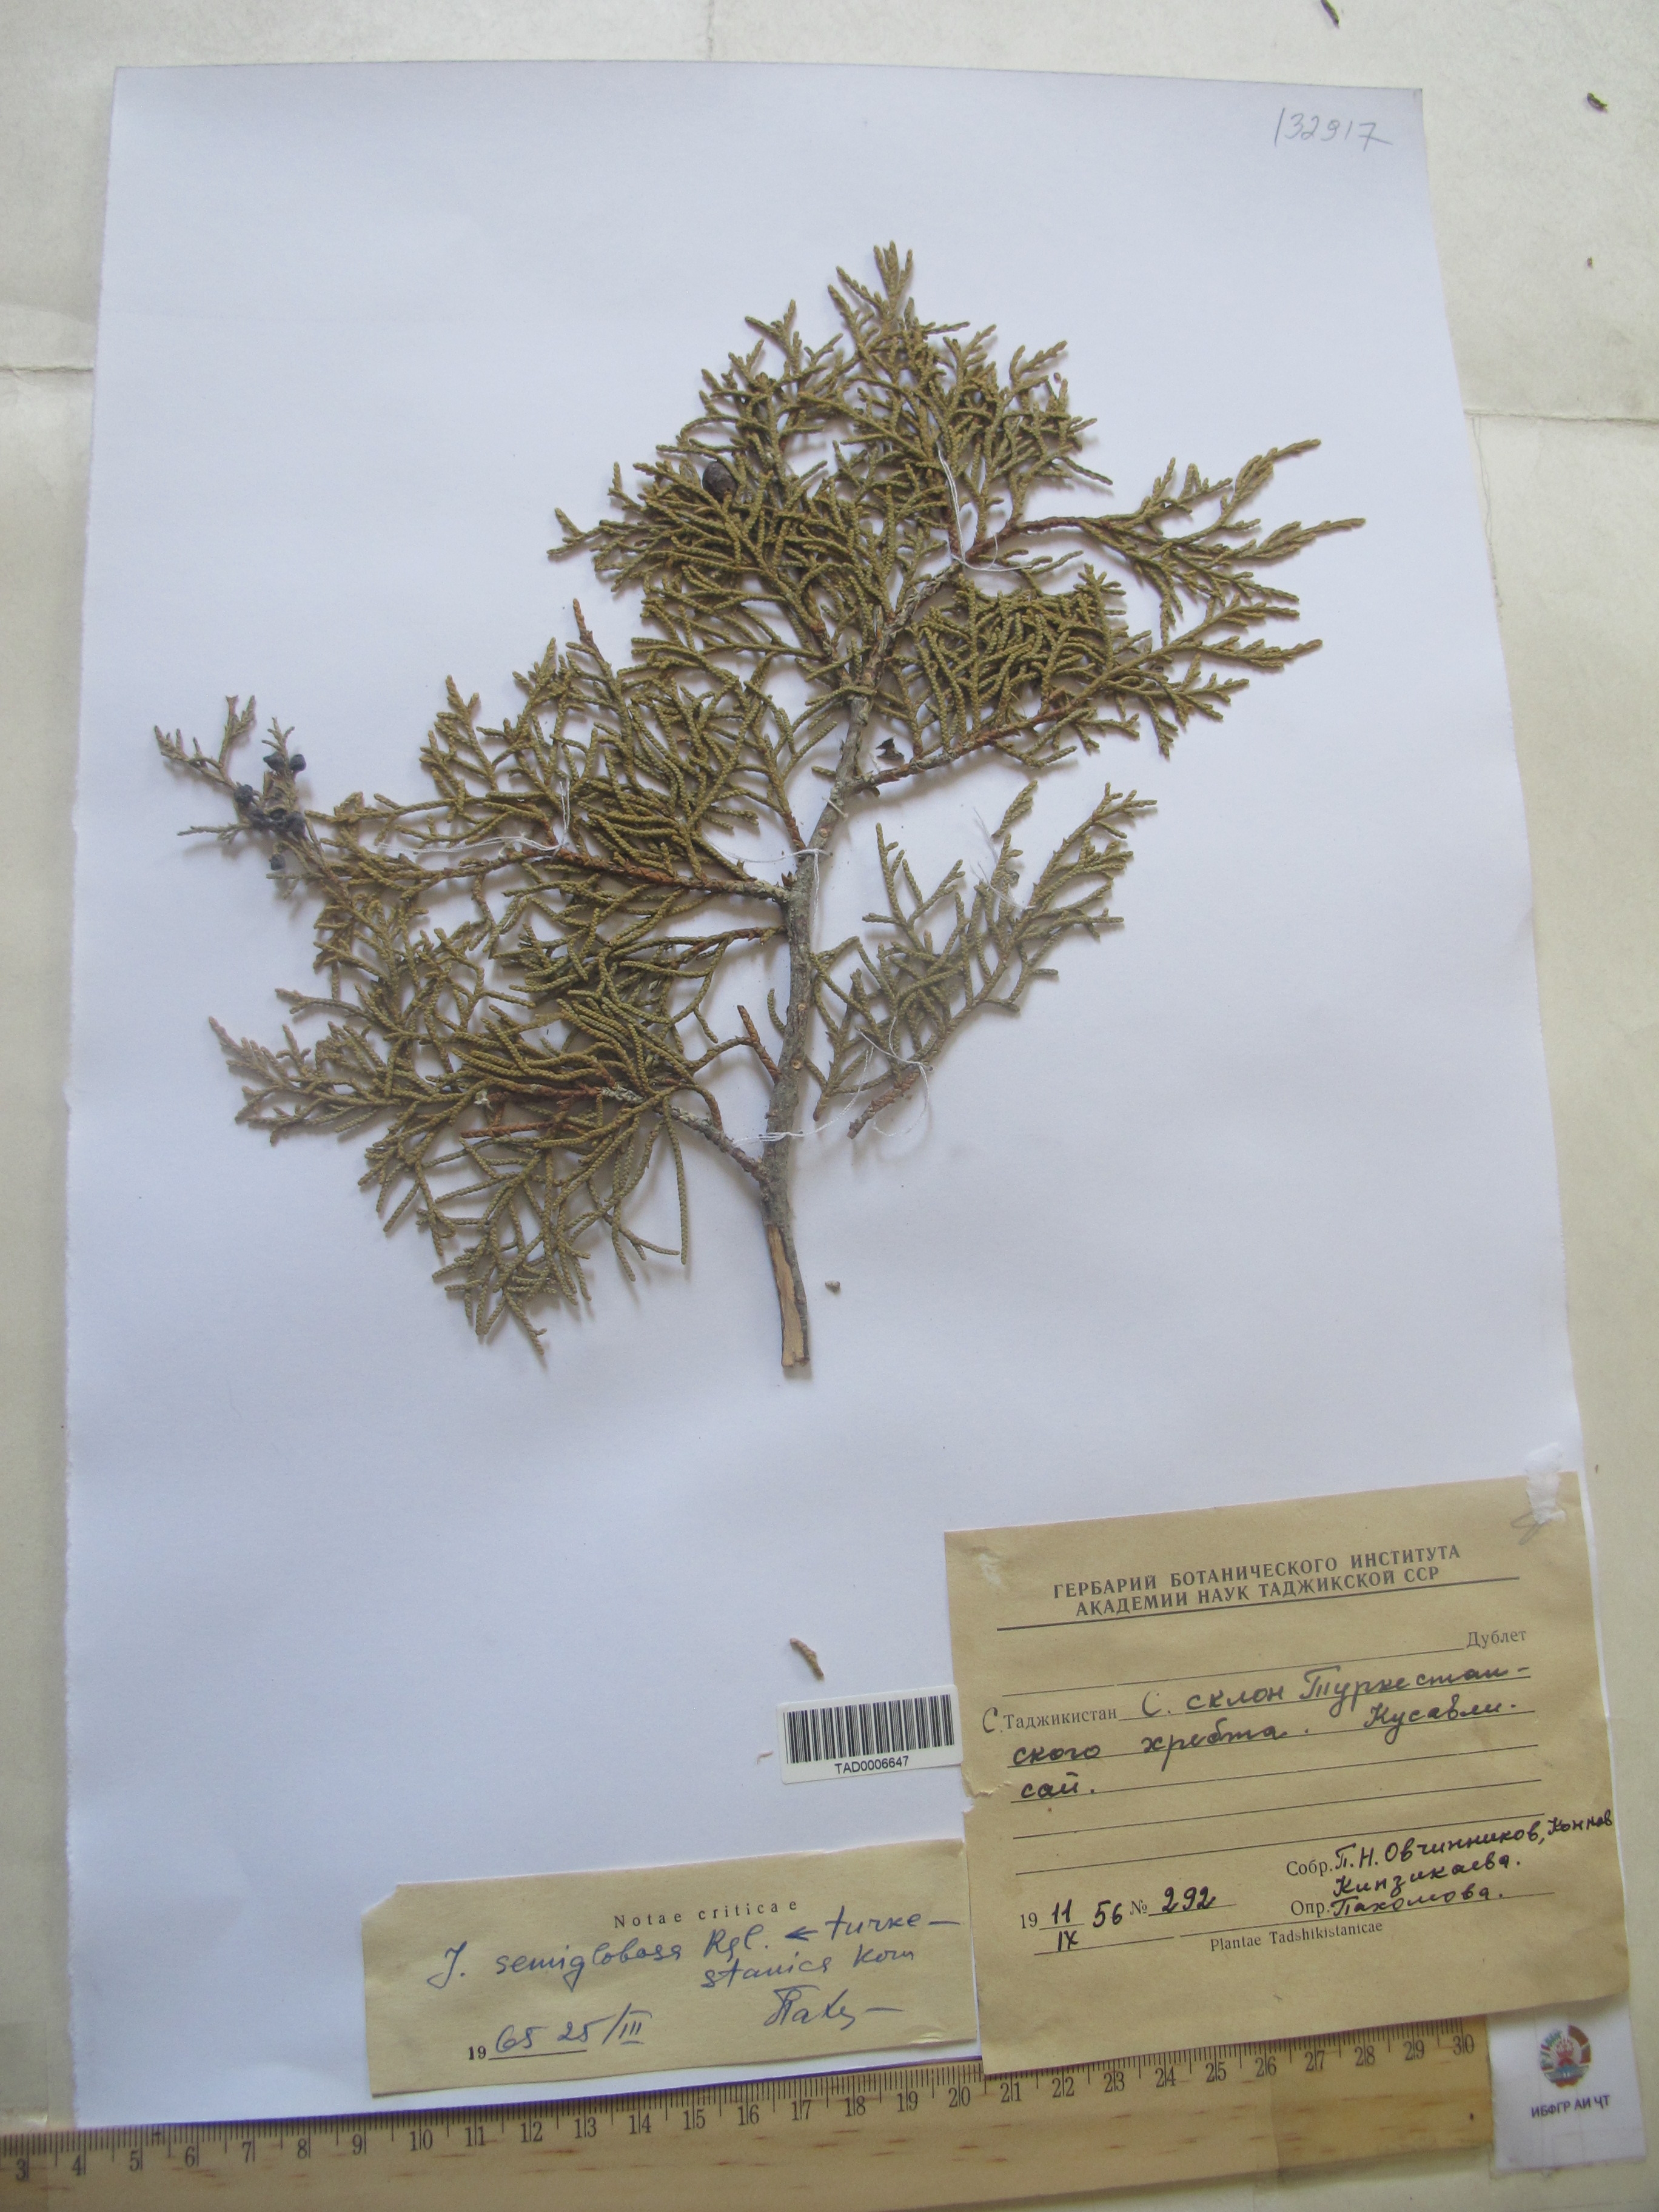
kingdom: Plantae
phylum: Tracheophyta
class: Pinopsida
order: Pinales
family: Cupressaceae
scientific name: Cupressaceae
